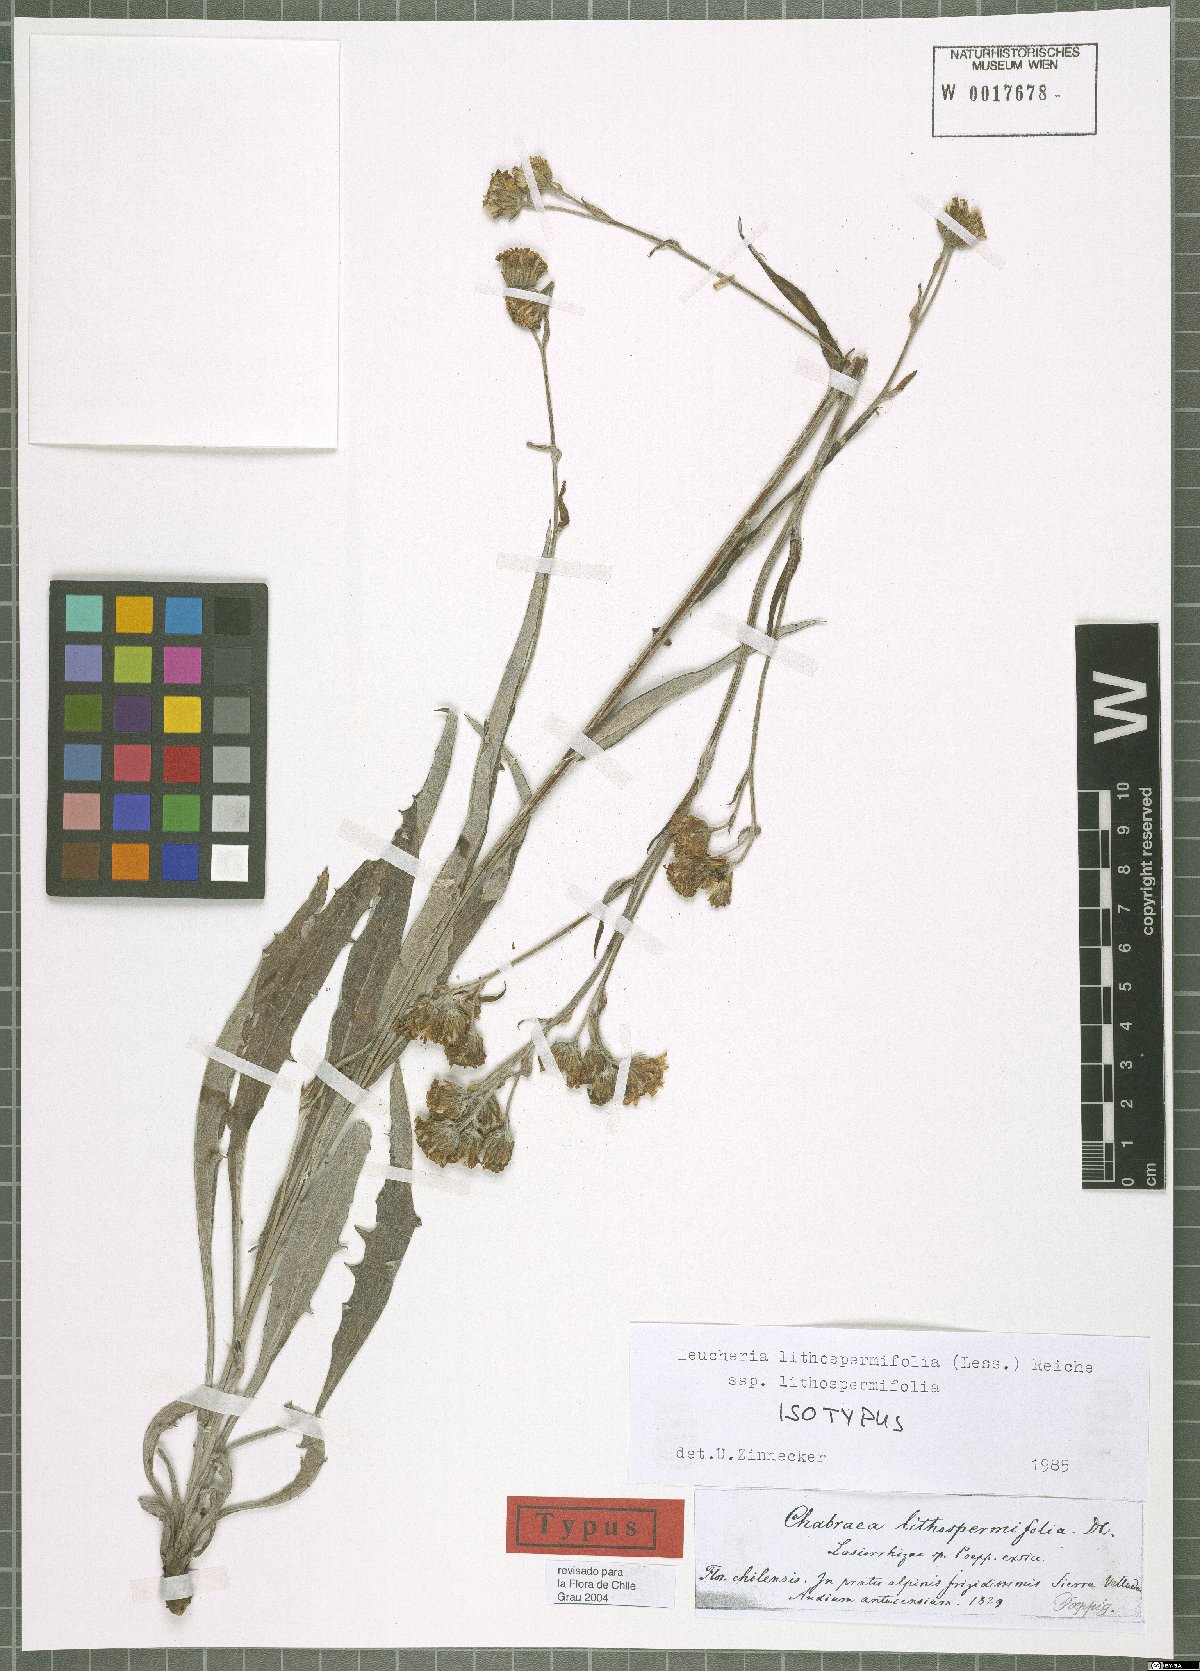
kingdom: Plantae
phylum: Tracheophyta
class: Magnoliopsida
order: Asterales
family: Asteraceae
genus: Leucheria
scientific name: Leucheria lithospermifolia
